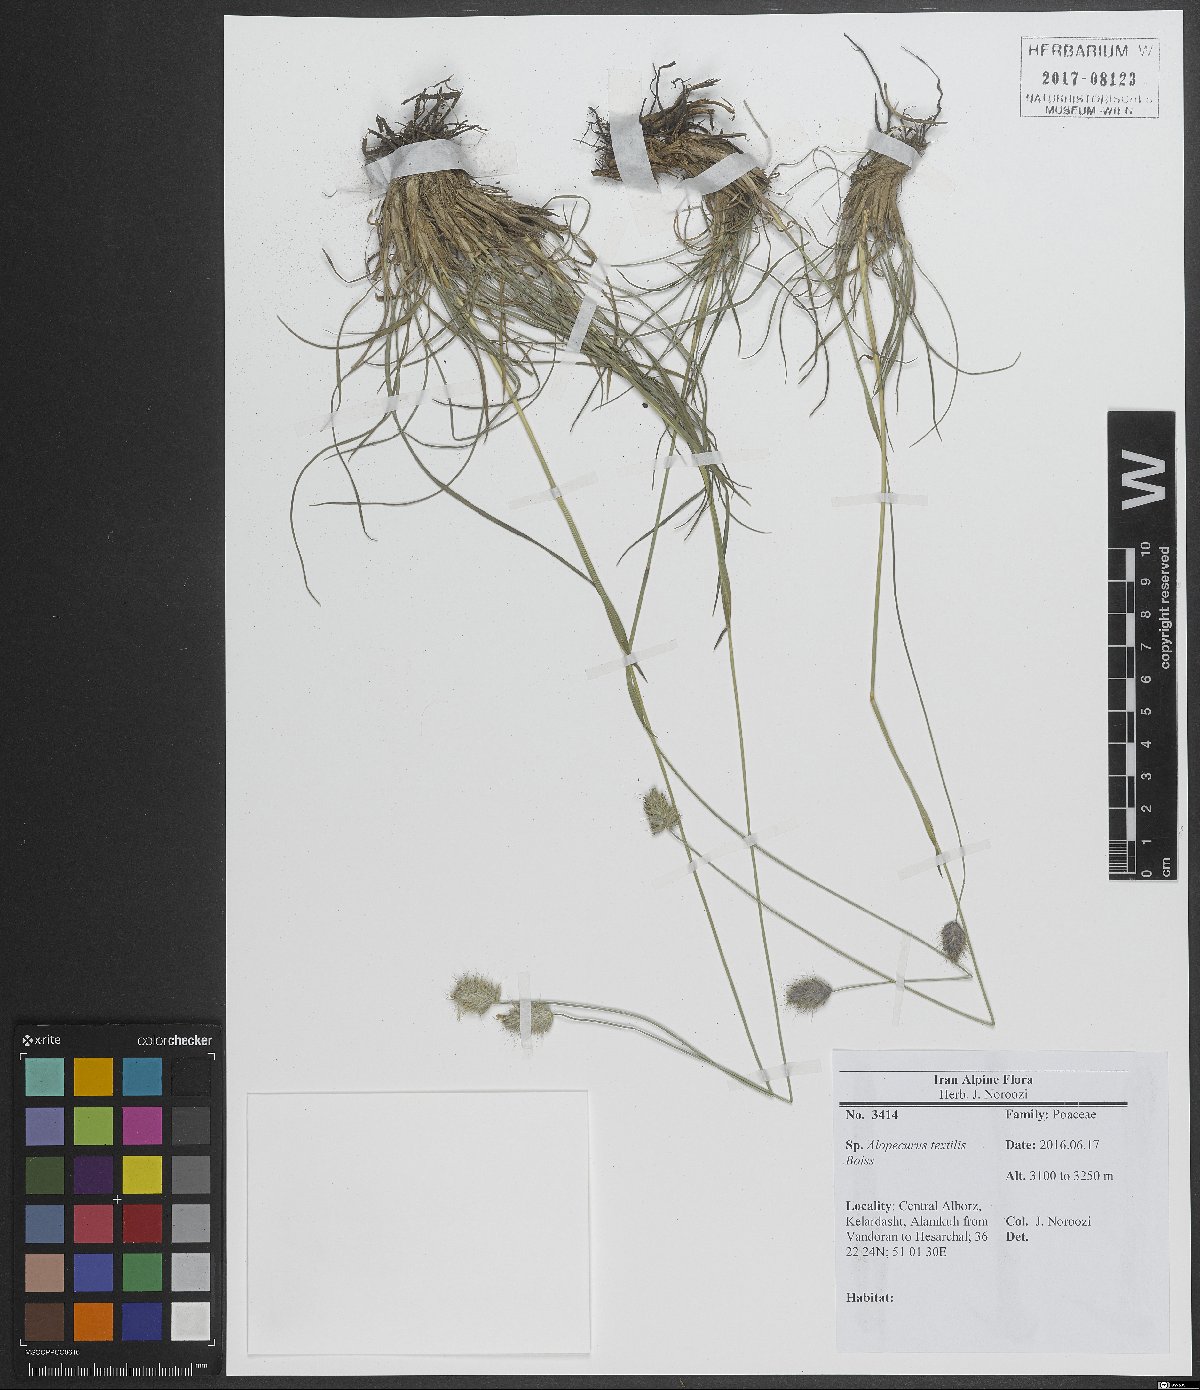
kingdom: Plantae
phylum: Tracheophyta
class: Liliopsida
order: Poales
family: Poaceae
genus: Alopecurus
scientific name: Alopecurus textilis
